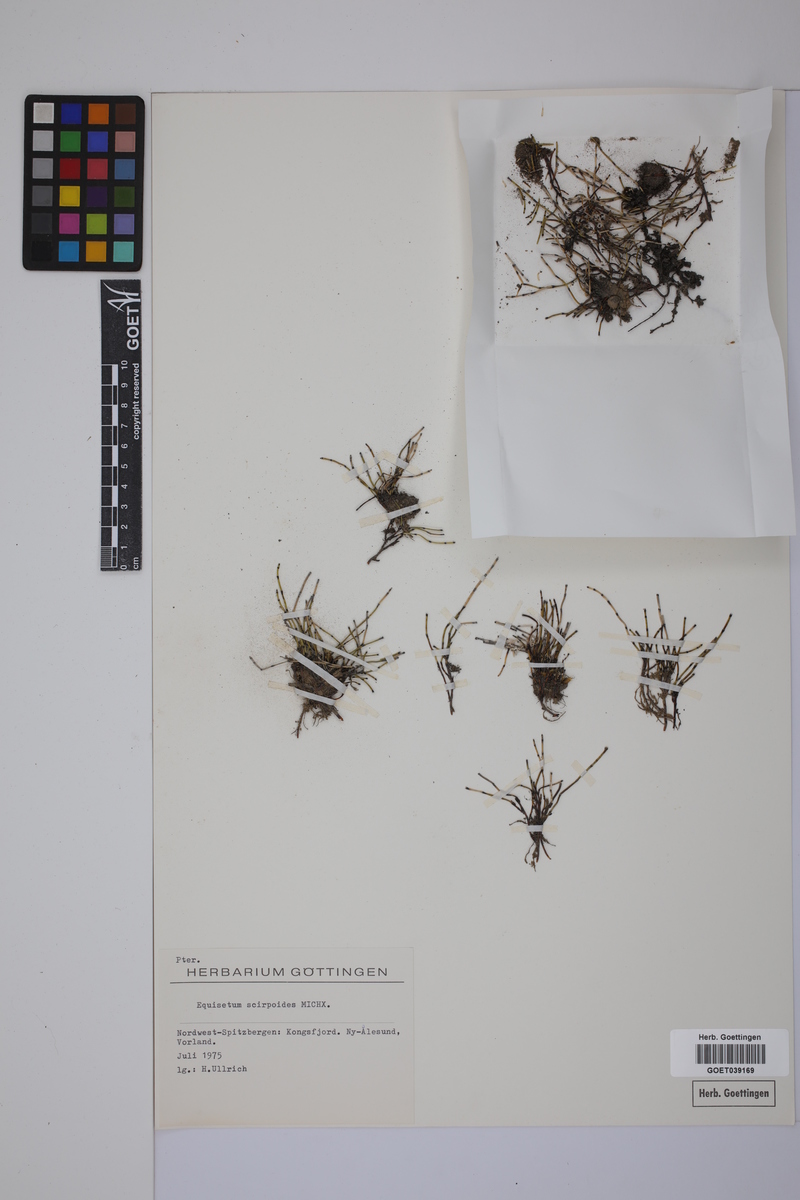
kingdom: Plantae
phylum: Tracheophyta
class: Polypodiopsida
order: Equisetales
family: Equisetaceae
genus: Equisetum
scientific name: Equisetum scirpoides
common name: Delicate horsetail
